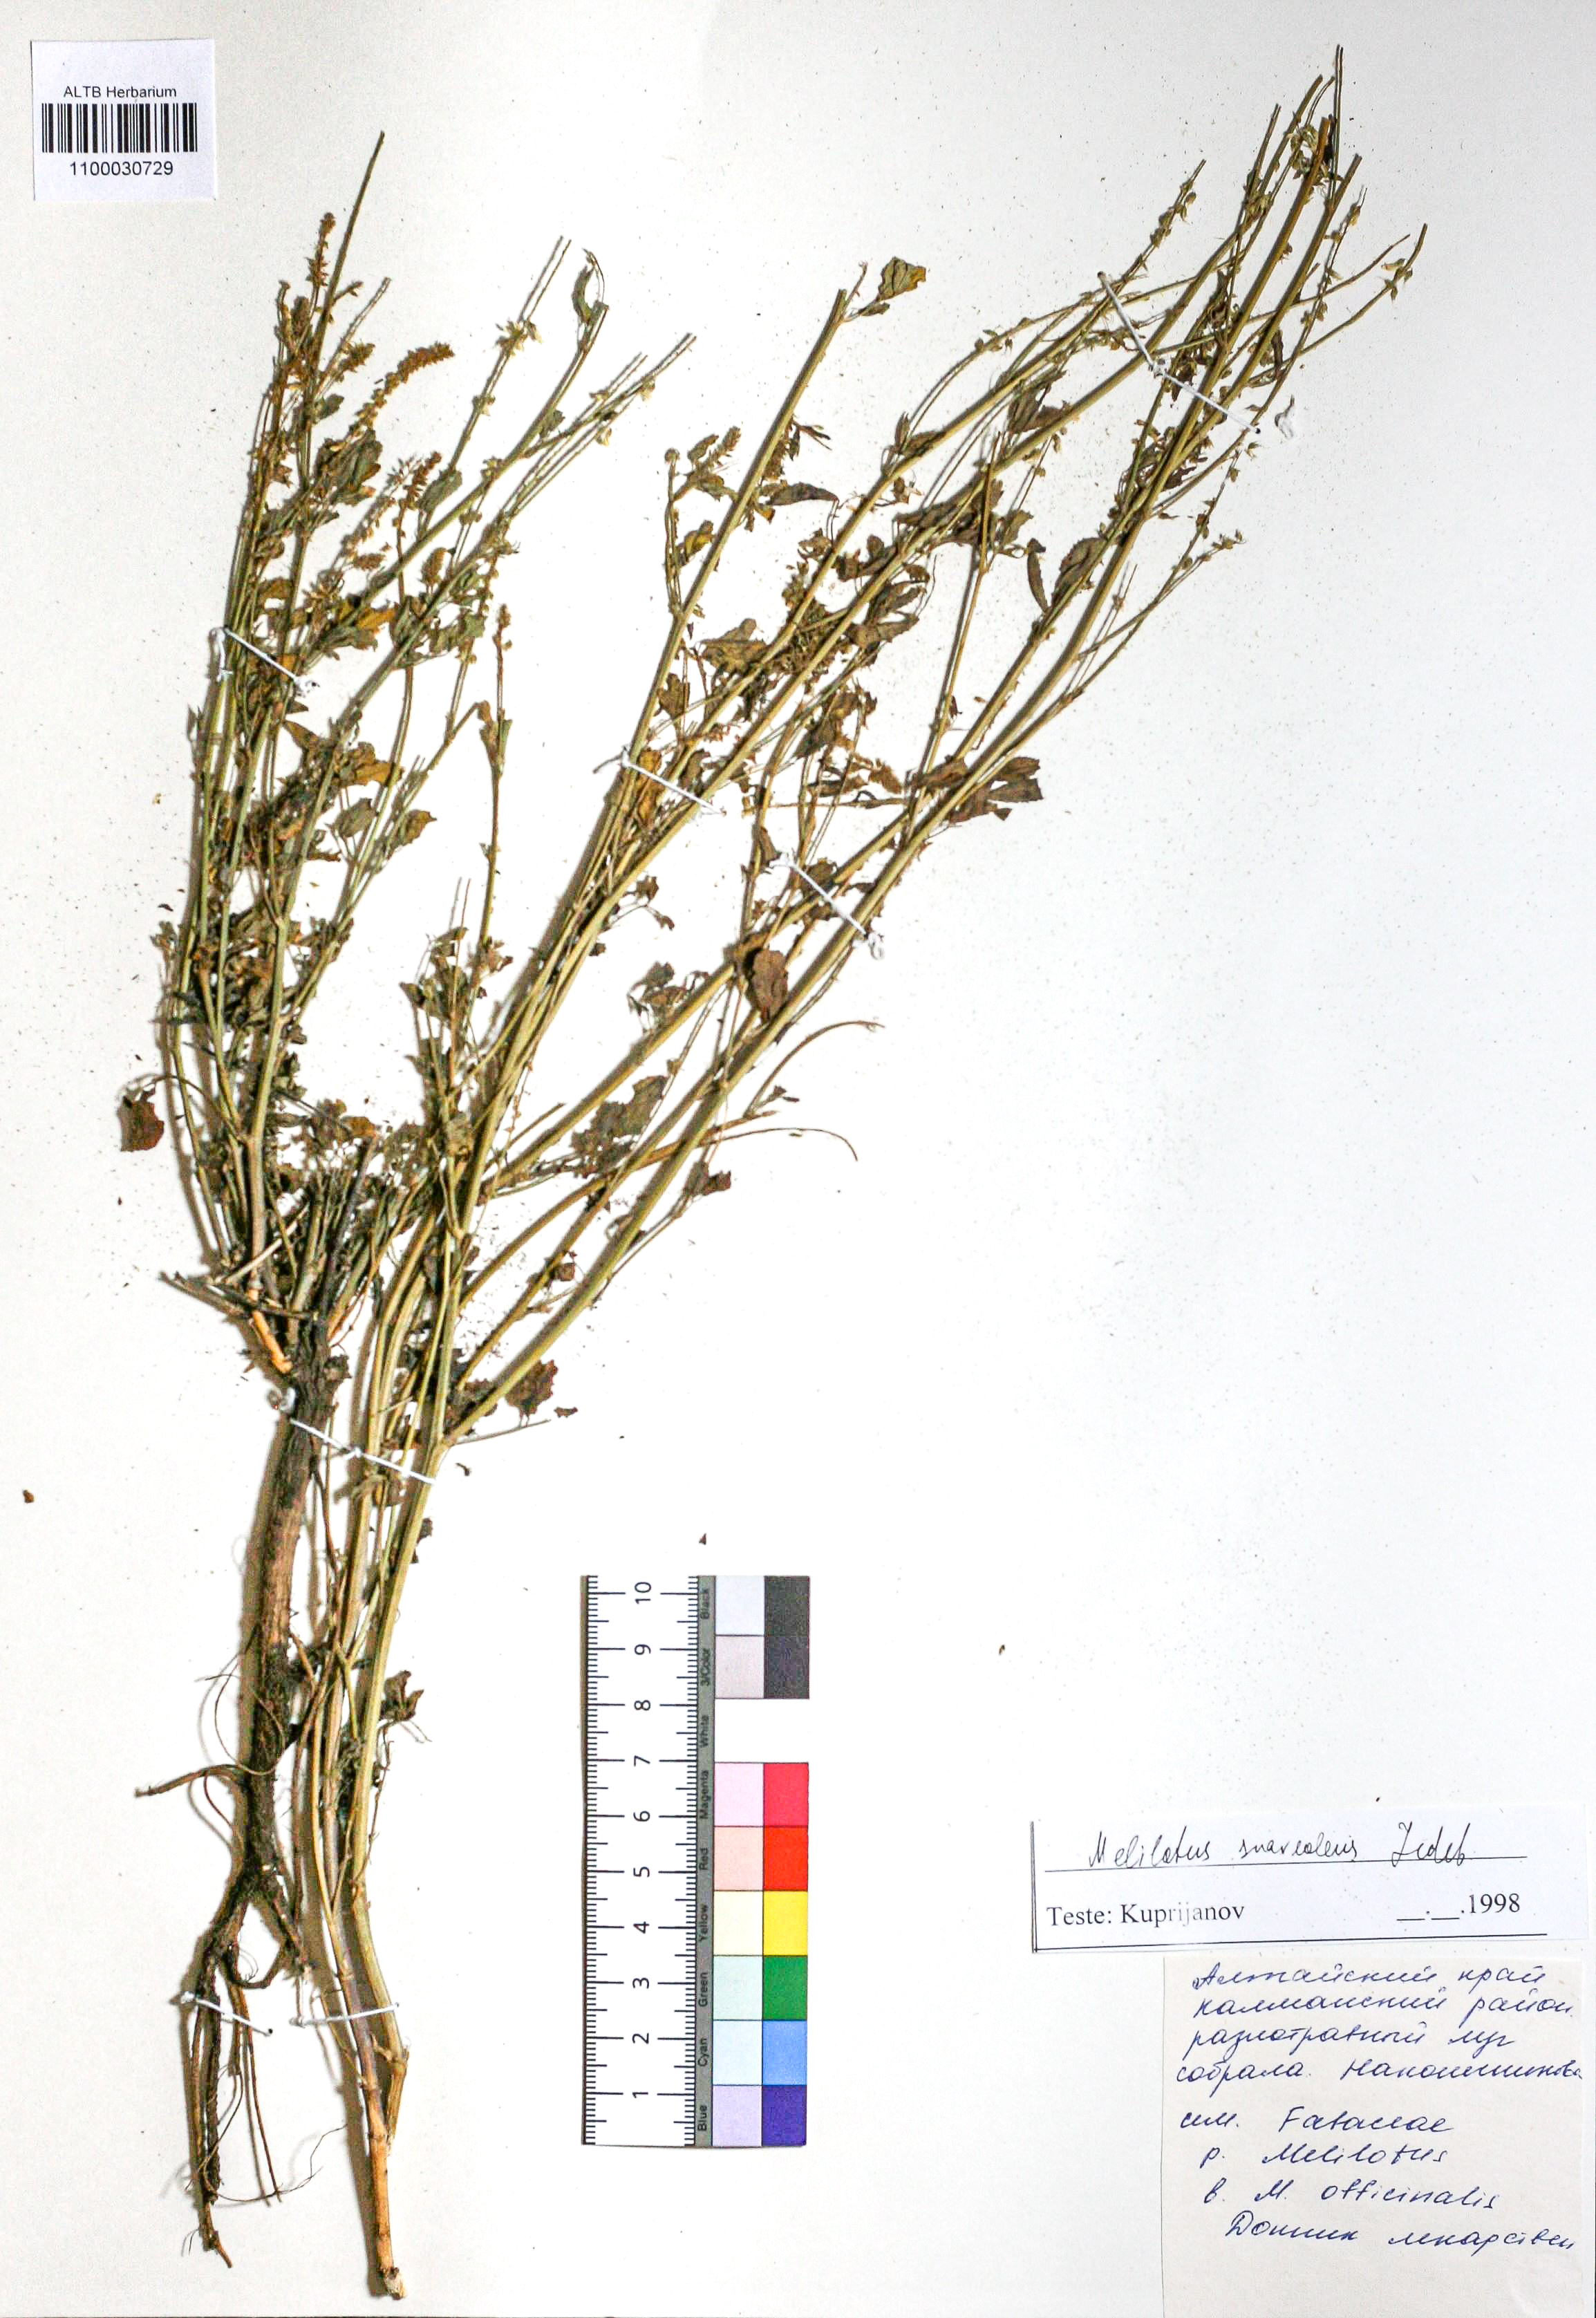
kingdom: Plantae
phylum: Tracheophyta
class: Magnoliopsida
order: Fabales
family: Fabaceae
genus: Melilotus
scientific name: Melilotus suaveolens
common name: Daghestan sweet-clover
